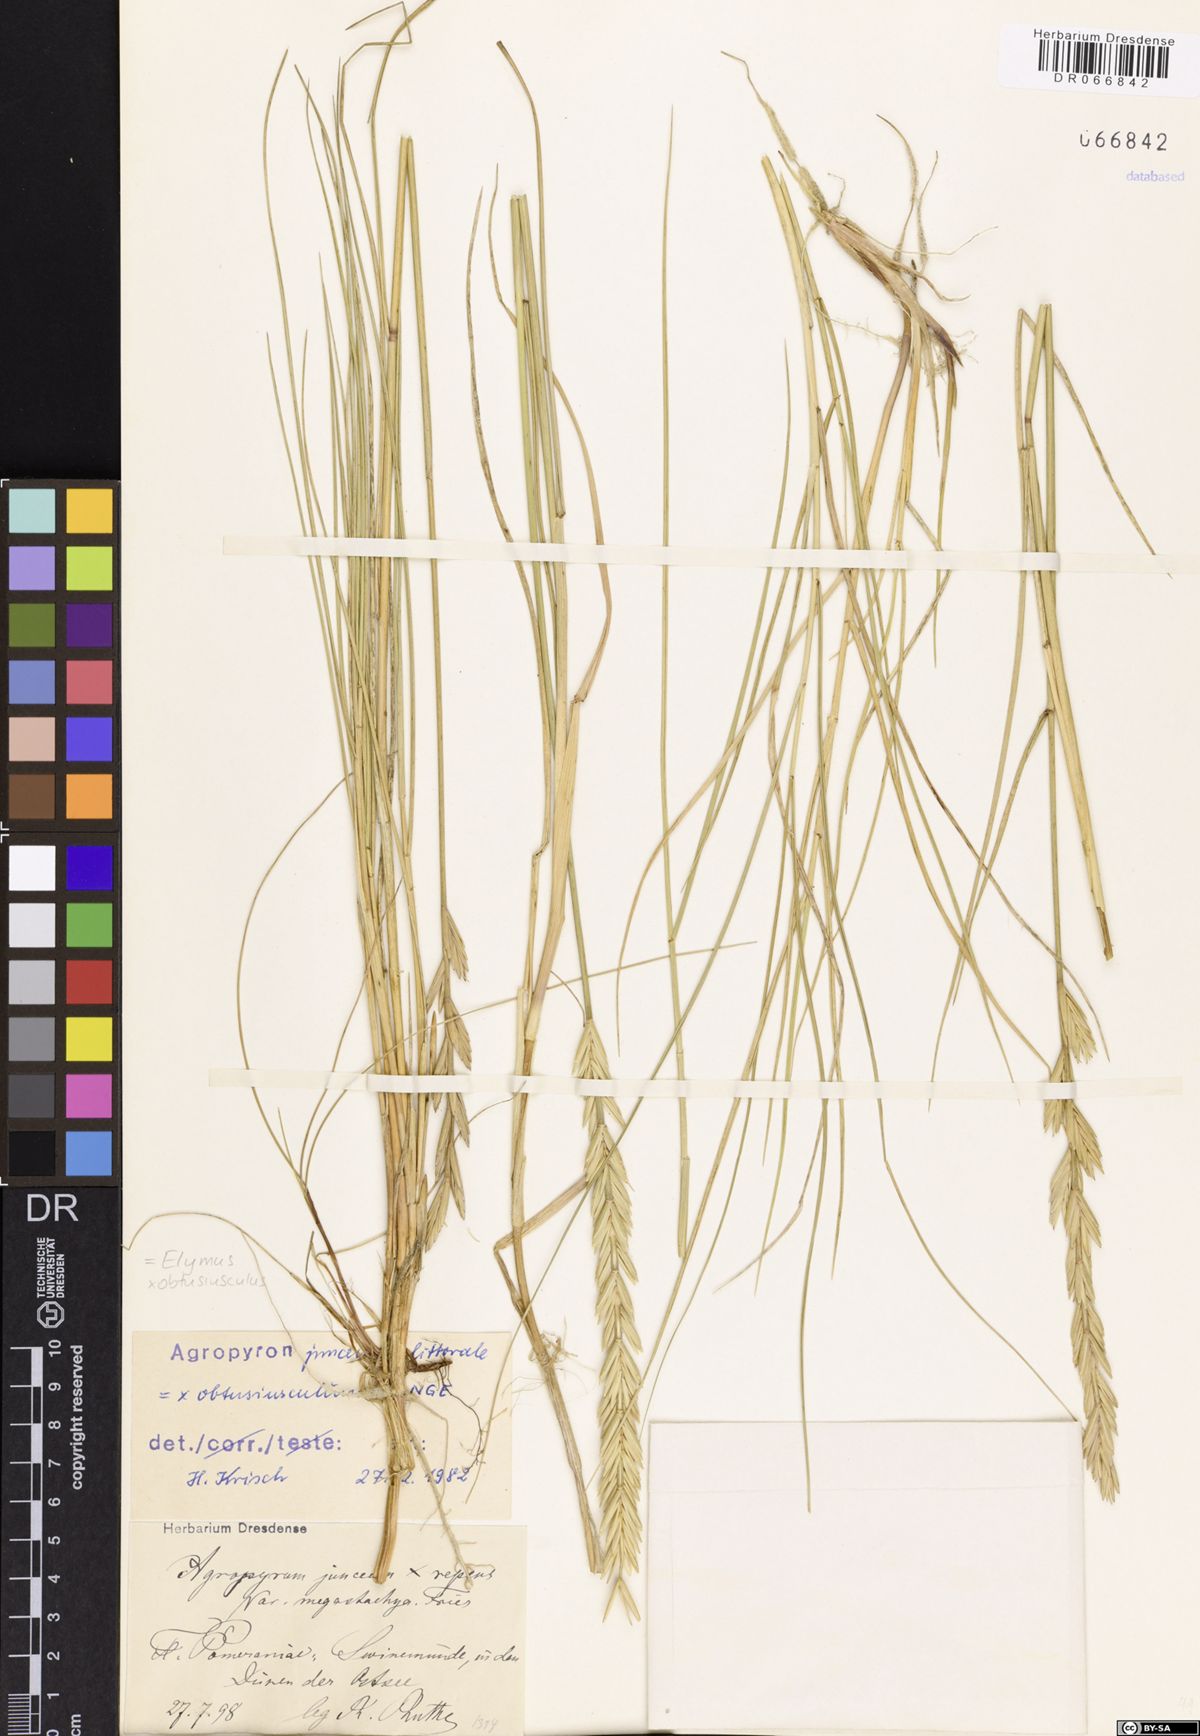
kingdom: Plantae
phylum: Tracheophyta
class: Liliopsida
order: Poales
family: Poaceae
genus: Thinoelymus
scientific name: Thinoelymus obtusiusculus
